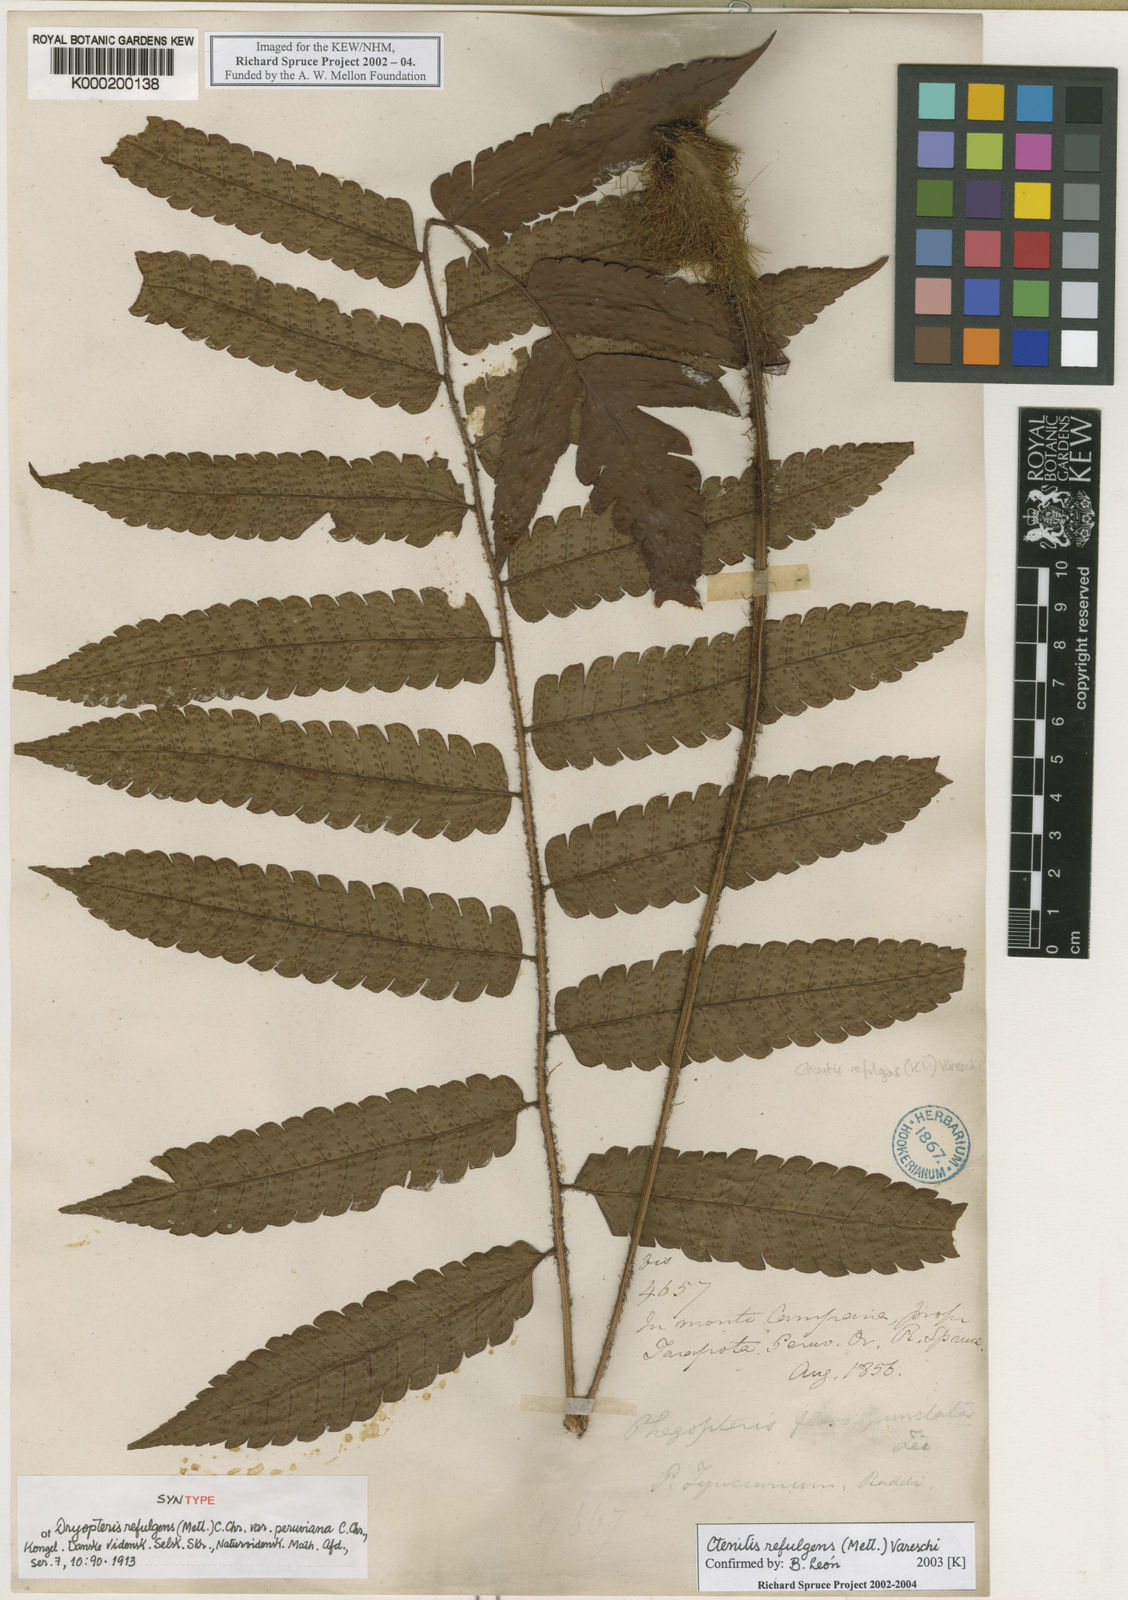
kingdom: Plantae
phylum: Tracheophyta
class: Polypodiopsida
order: Polypodiales
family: Dryopteridaceae
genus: Ctenitis
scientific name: Ctenitis
